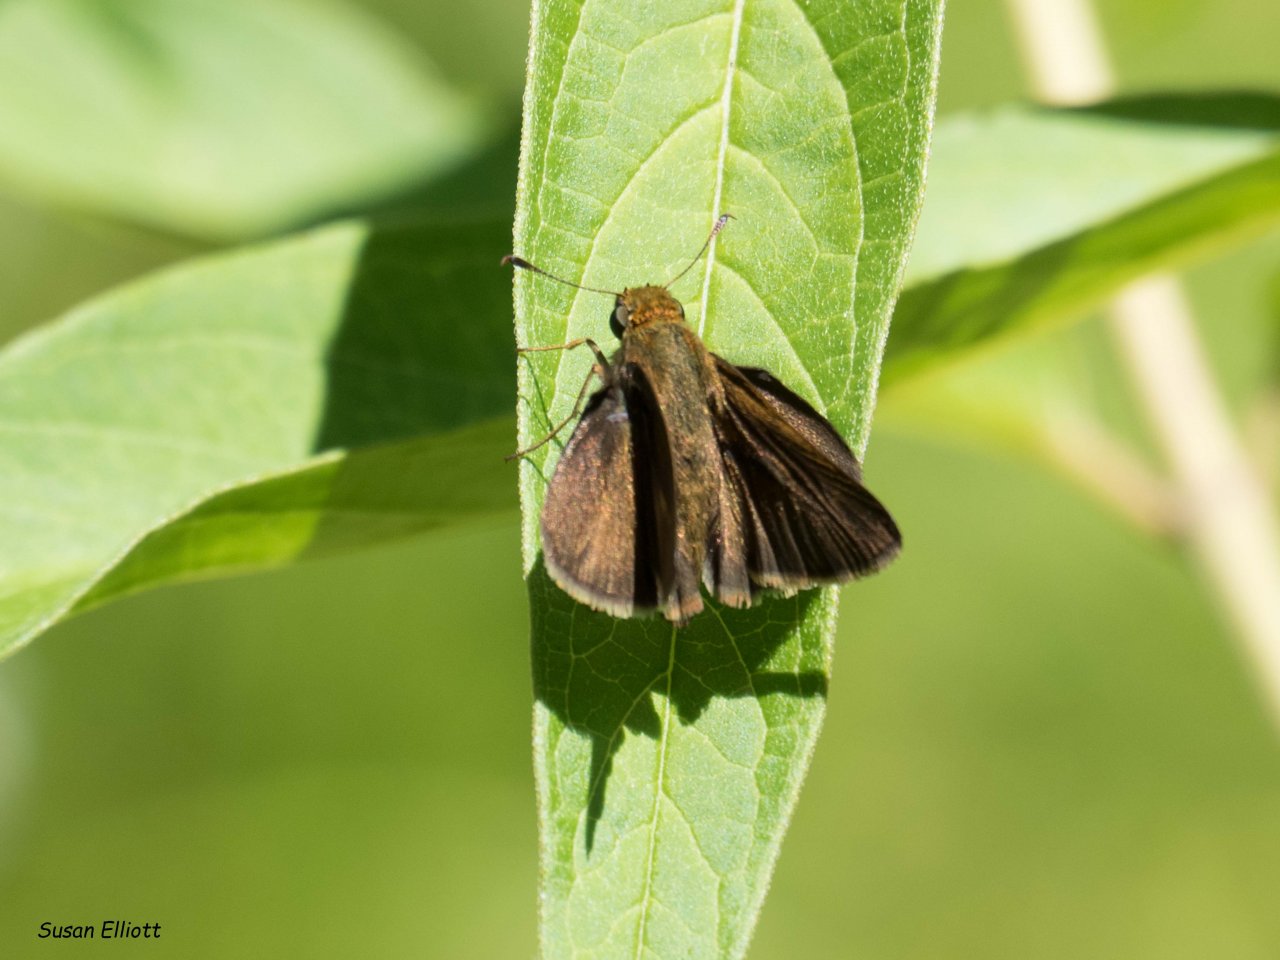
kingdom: Animalia
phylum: Arthropoda
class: Insecta
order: Lepidoptera
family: Hesperiidae
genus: Euphyes
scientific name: Euphyes vestris
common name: Dun Skipper
